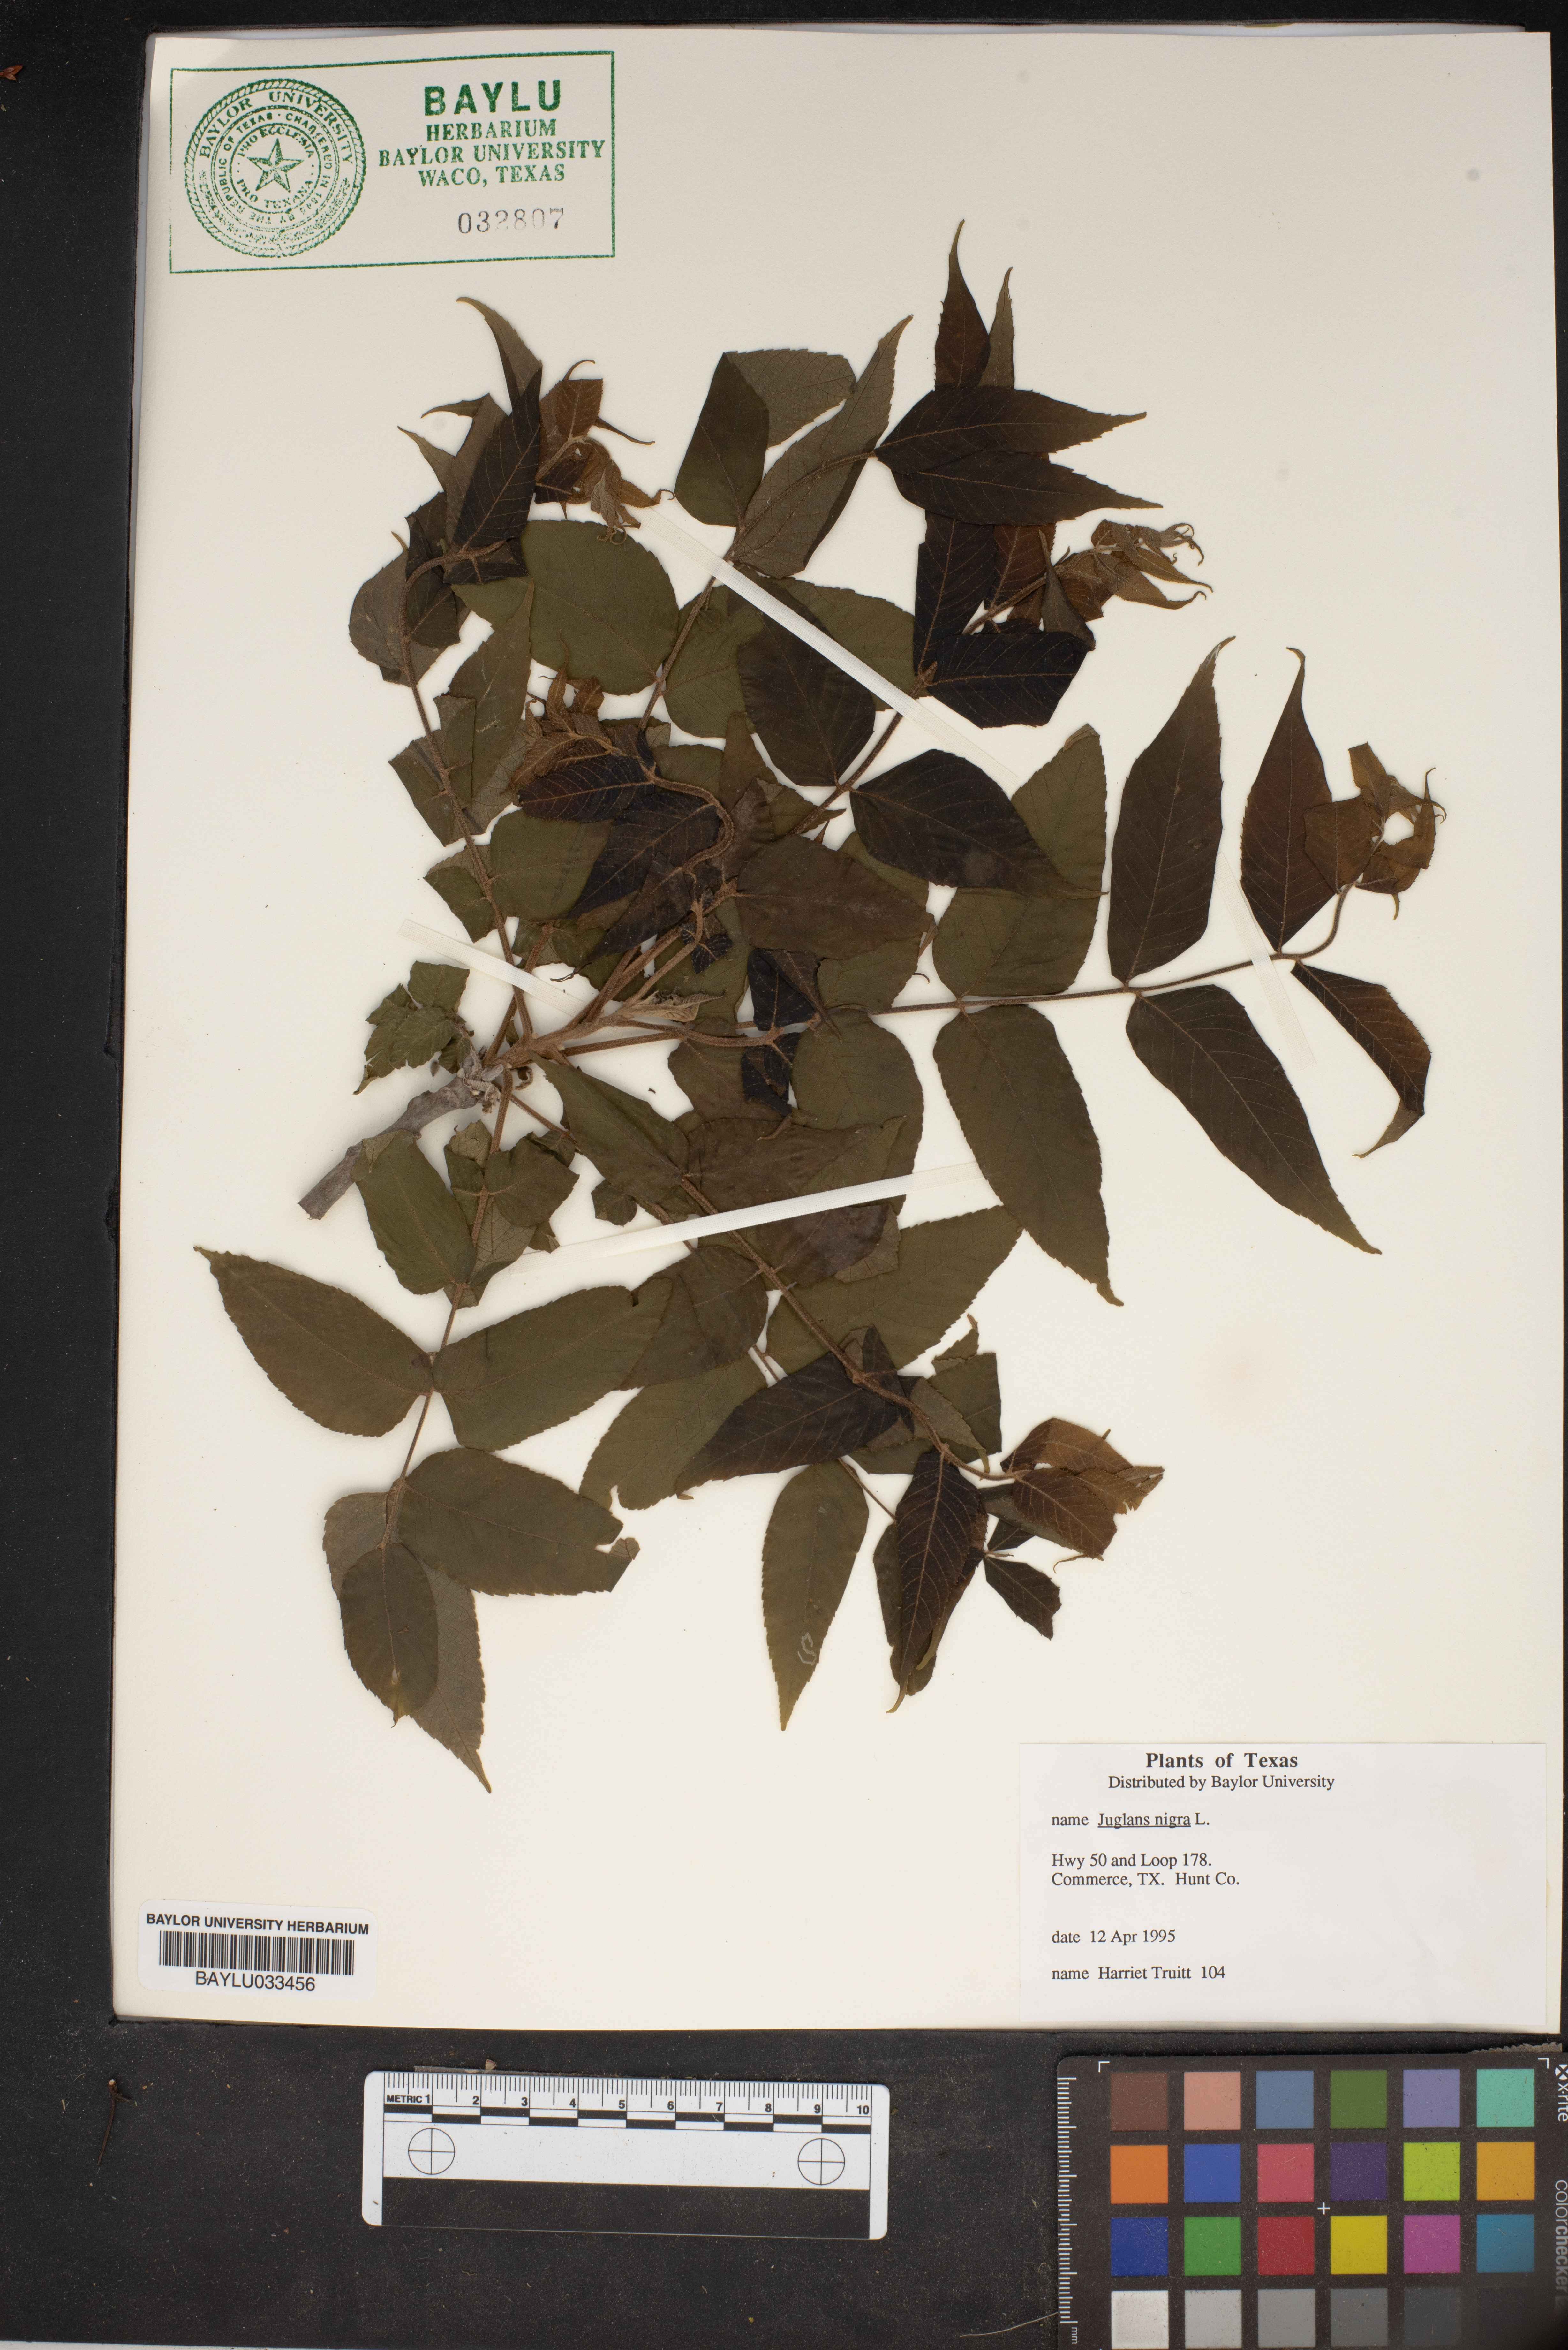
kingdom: Plantae
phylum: Tracheophyta
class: Magnoliopsida
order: Fagales
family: Juglandaceae
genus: Juglans
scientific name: Juglans nigra
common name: Black walnut
